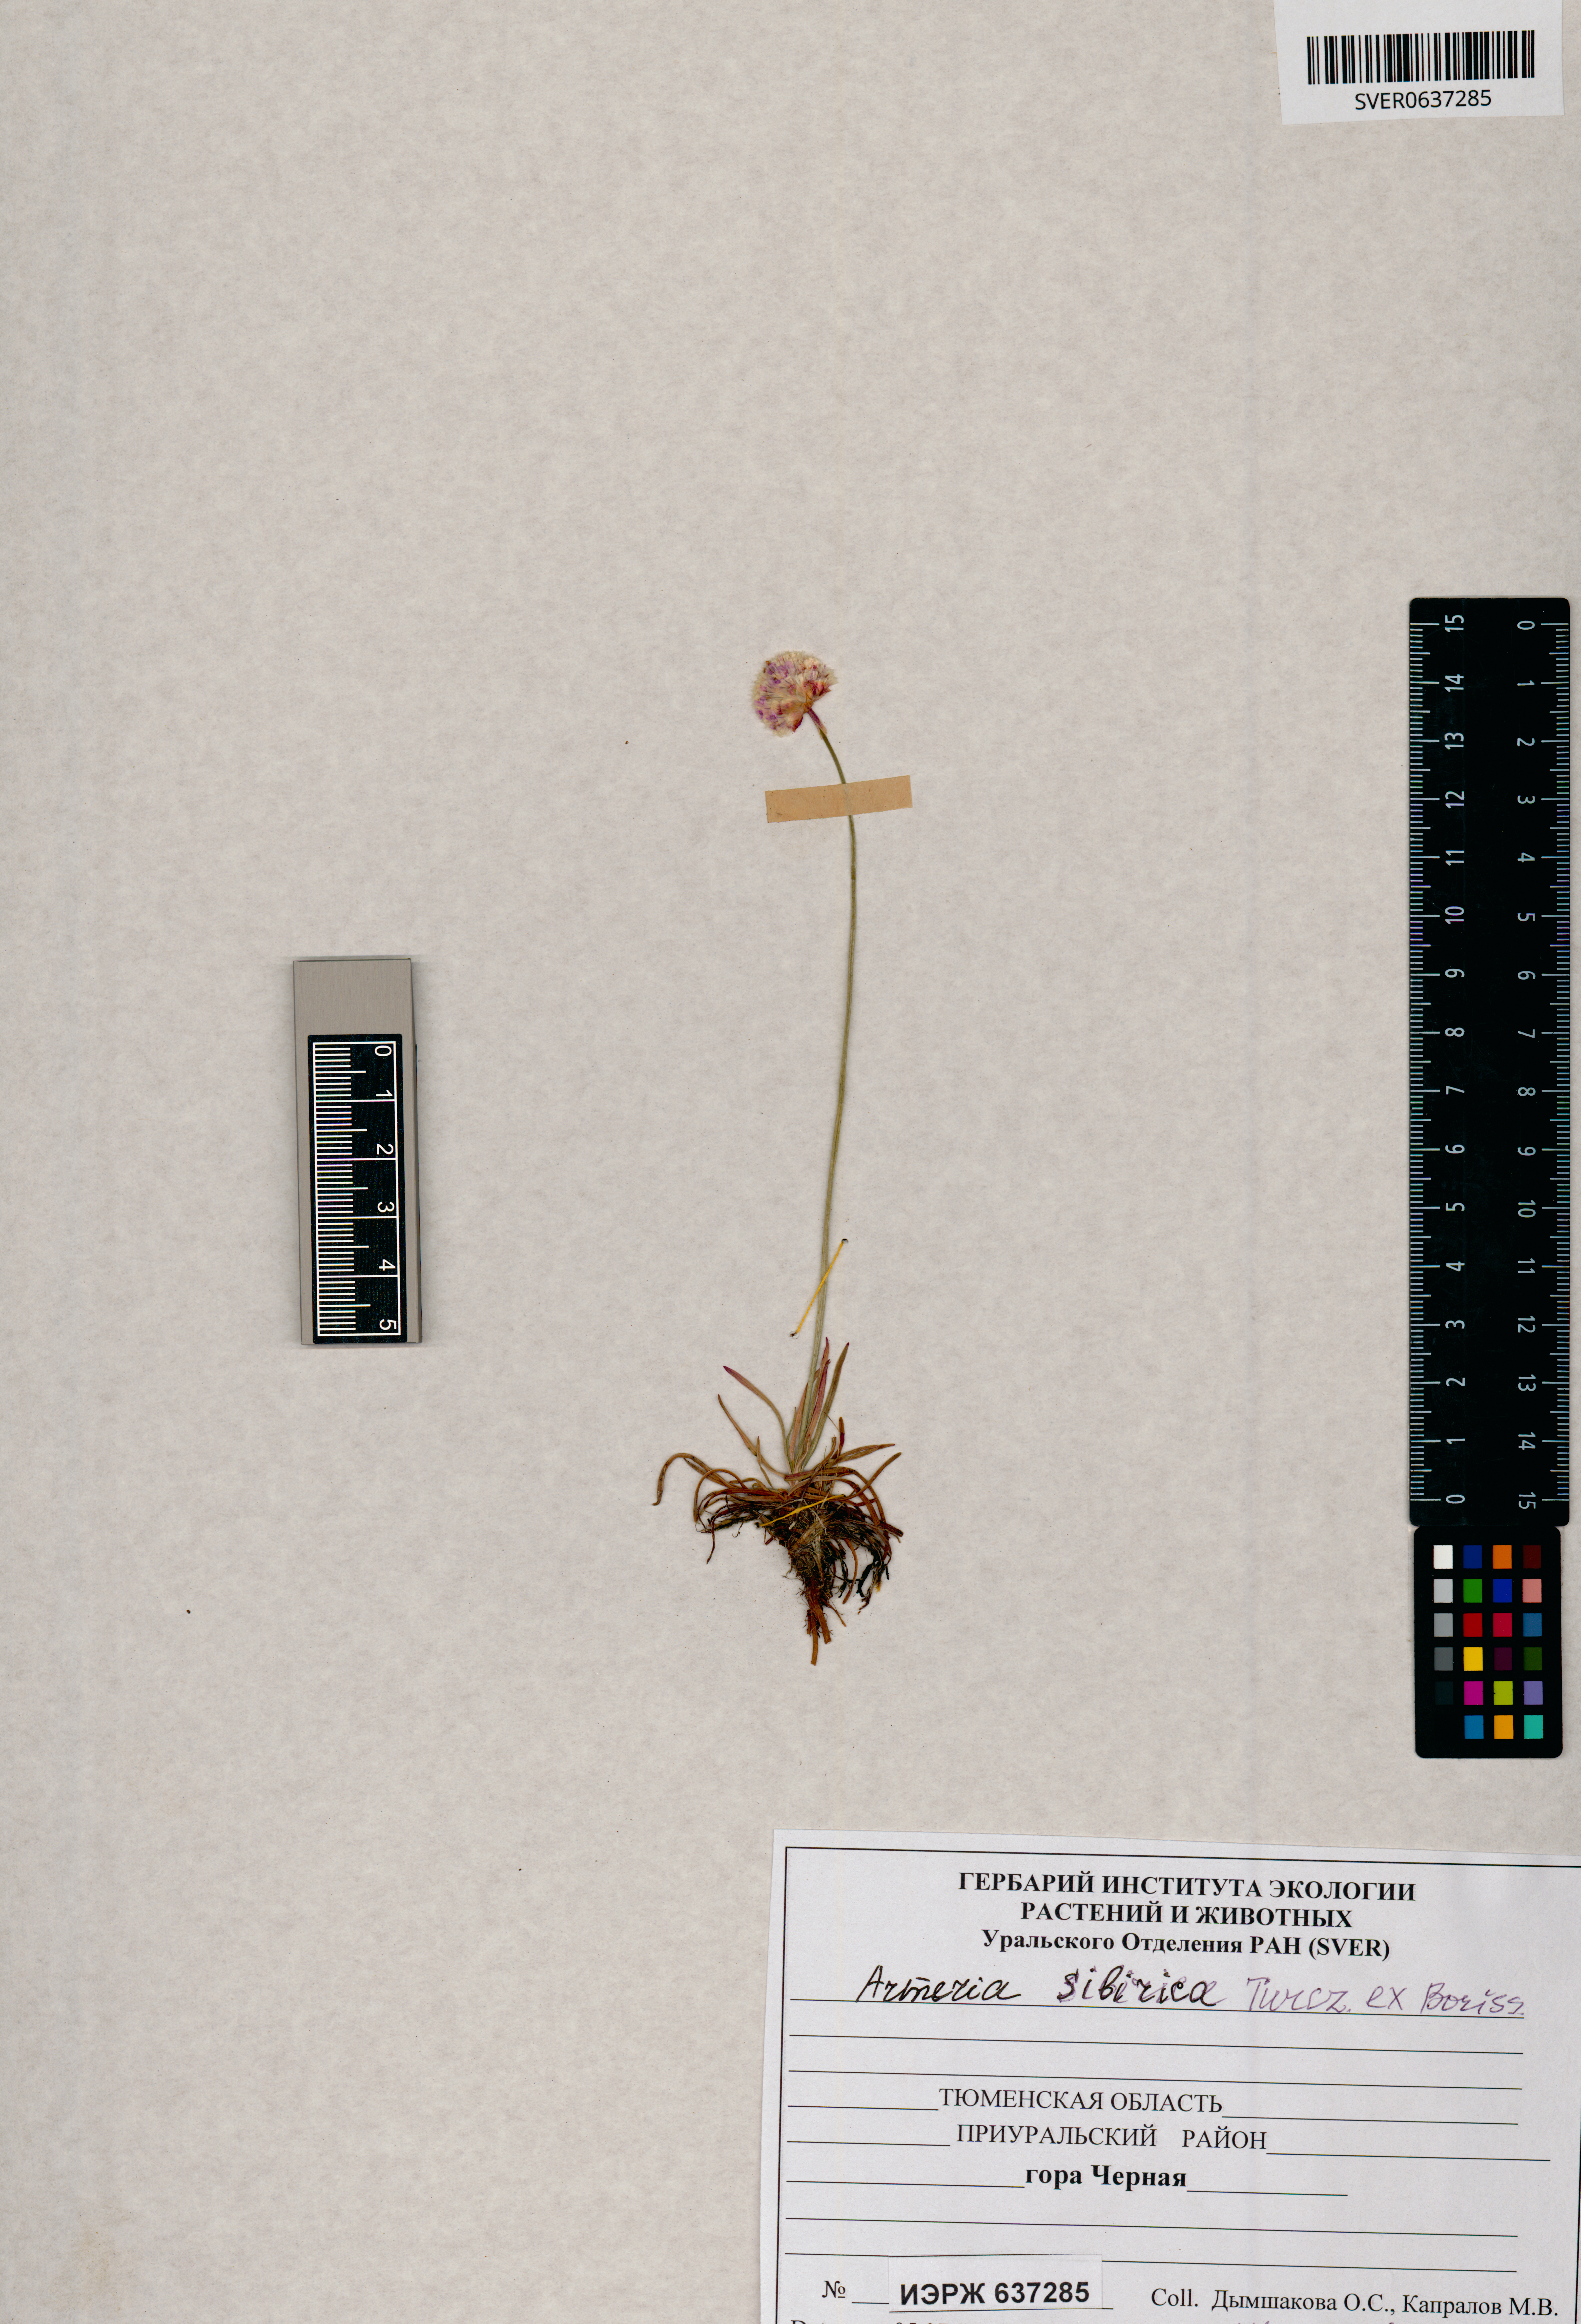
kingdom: Plantae
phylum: Tracheophyta
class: Magnoliopsida
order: Caryophyllales
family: Plumbaginaceae
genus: Armeria
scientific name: Armeria maritima
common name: Thrift
